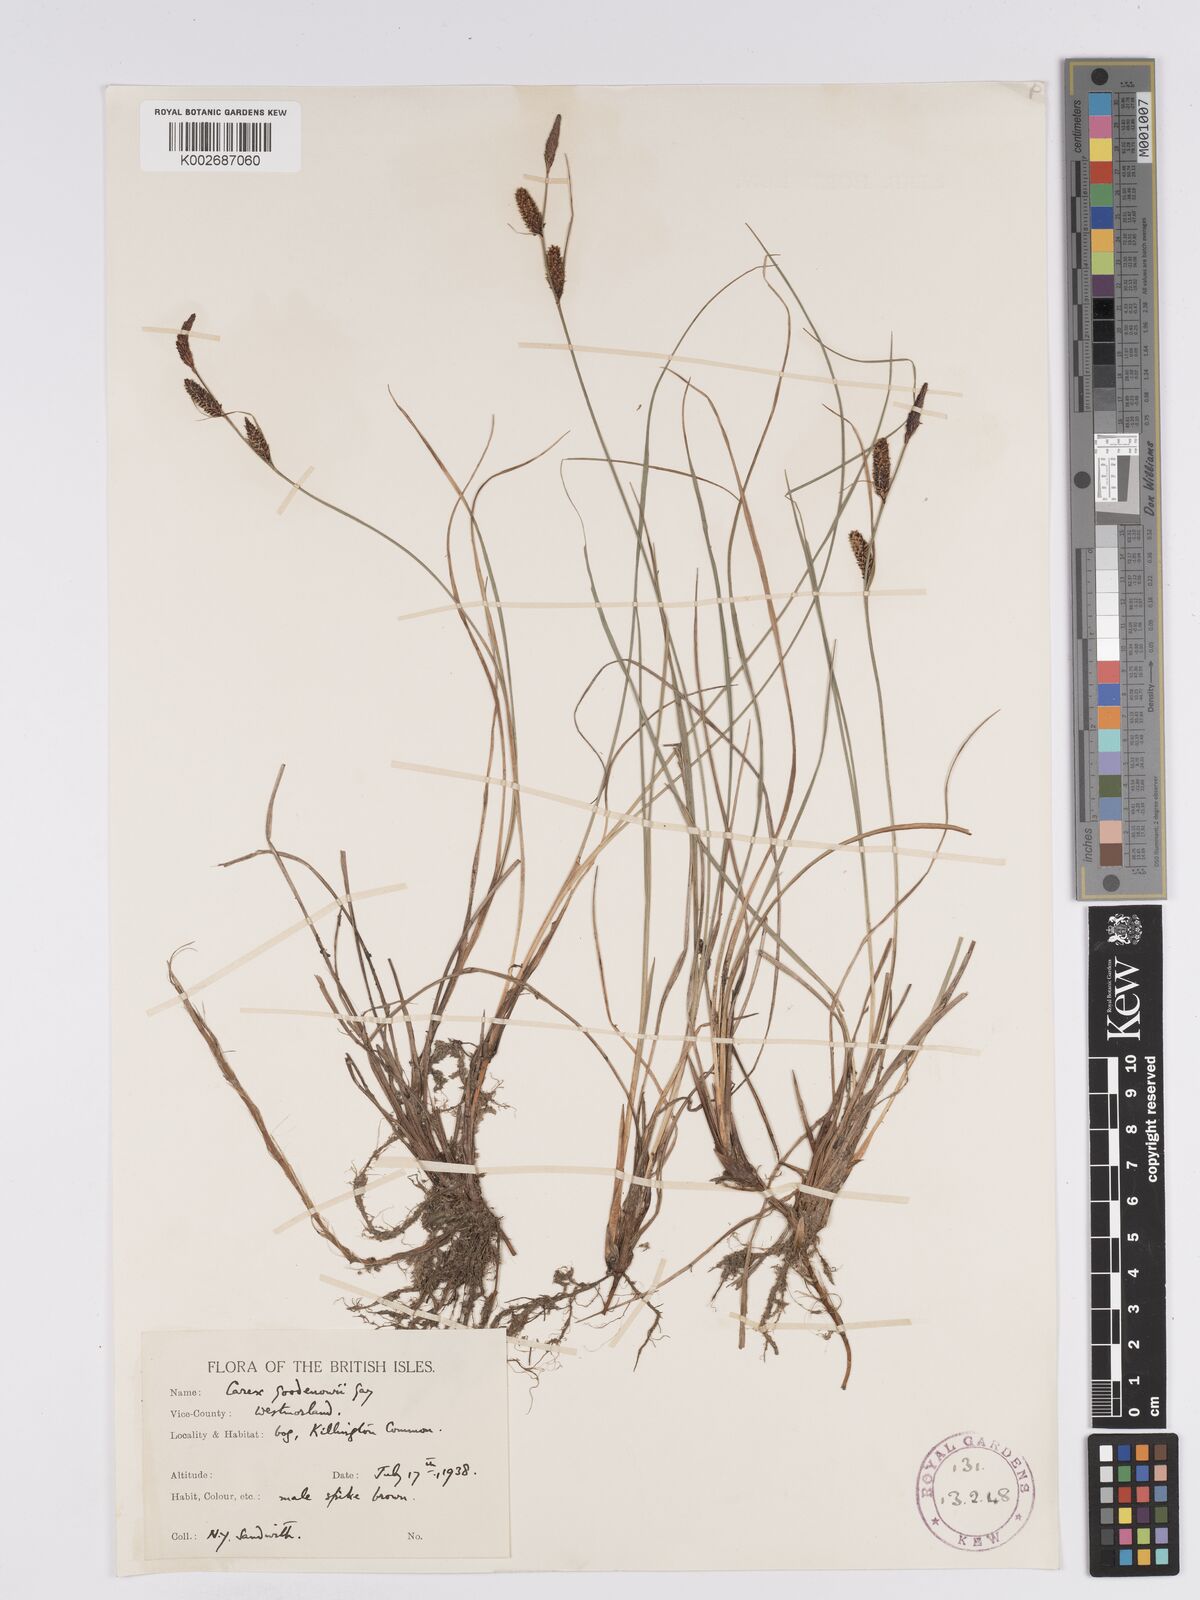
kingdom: Plantae
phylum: Tracheophyta
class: Liliopsida
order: Poales
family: Cyperaceae
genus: Carex
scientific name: Carex nigra
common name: Common sedge
